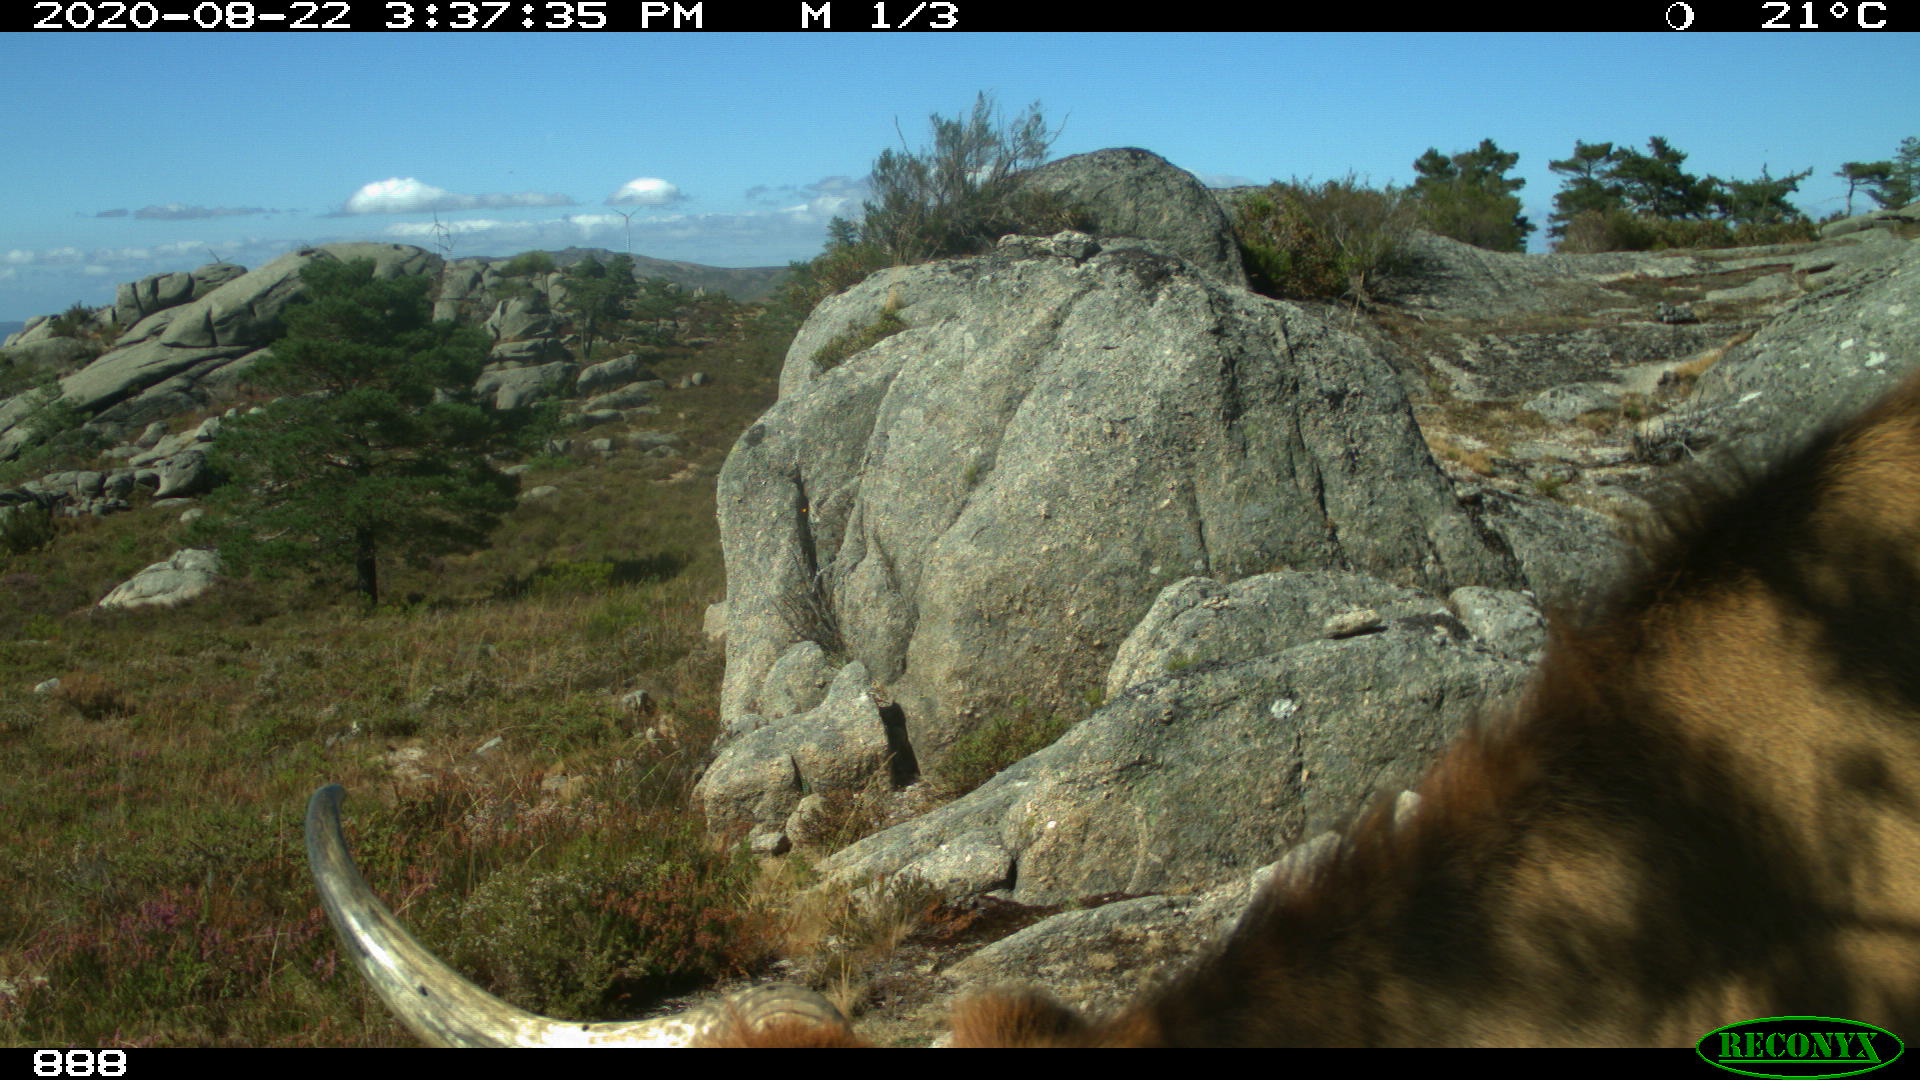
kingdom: Animalia
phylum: Chordata
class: Mammalia
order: Artiodactyla
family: Bovidae
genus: Bos
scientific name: Bos taurus
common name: Domesticated cattle
